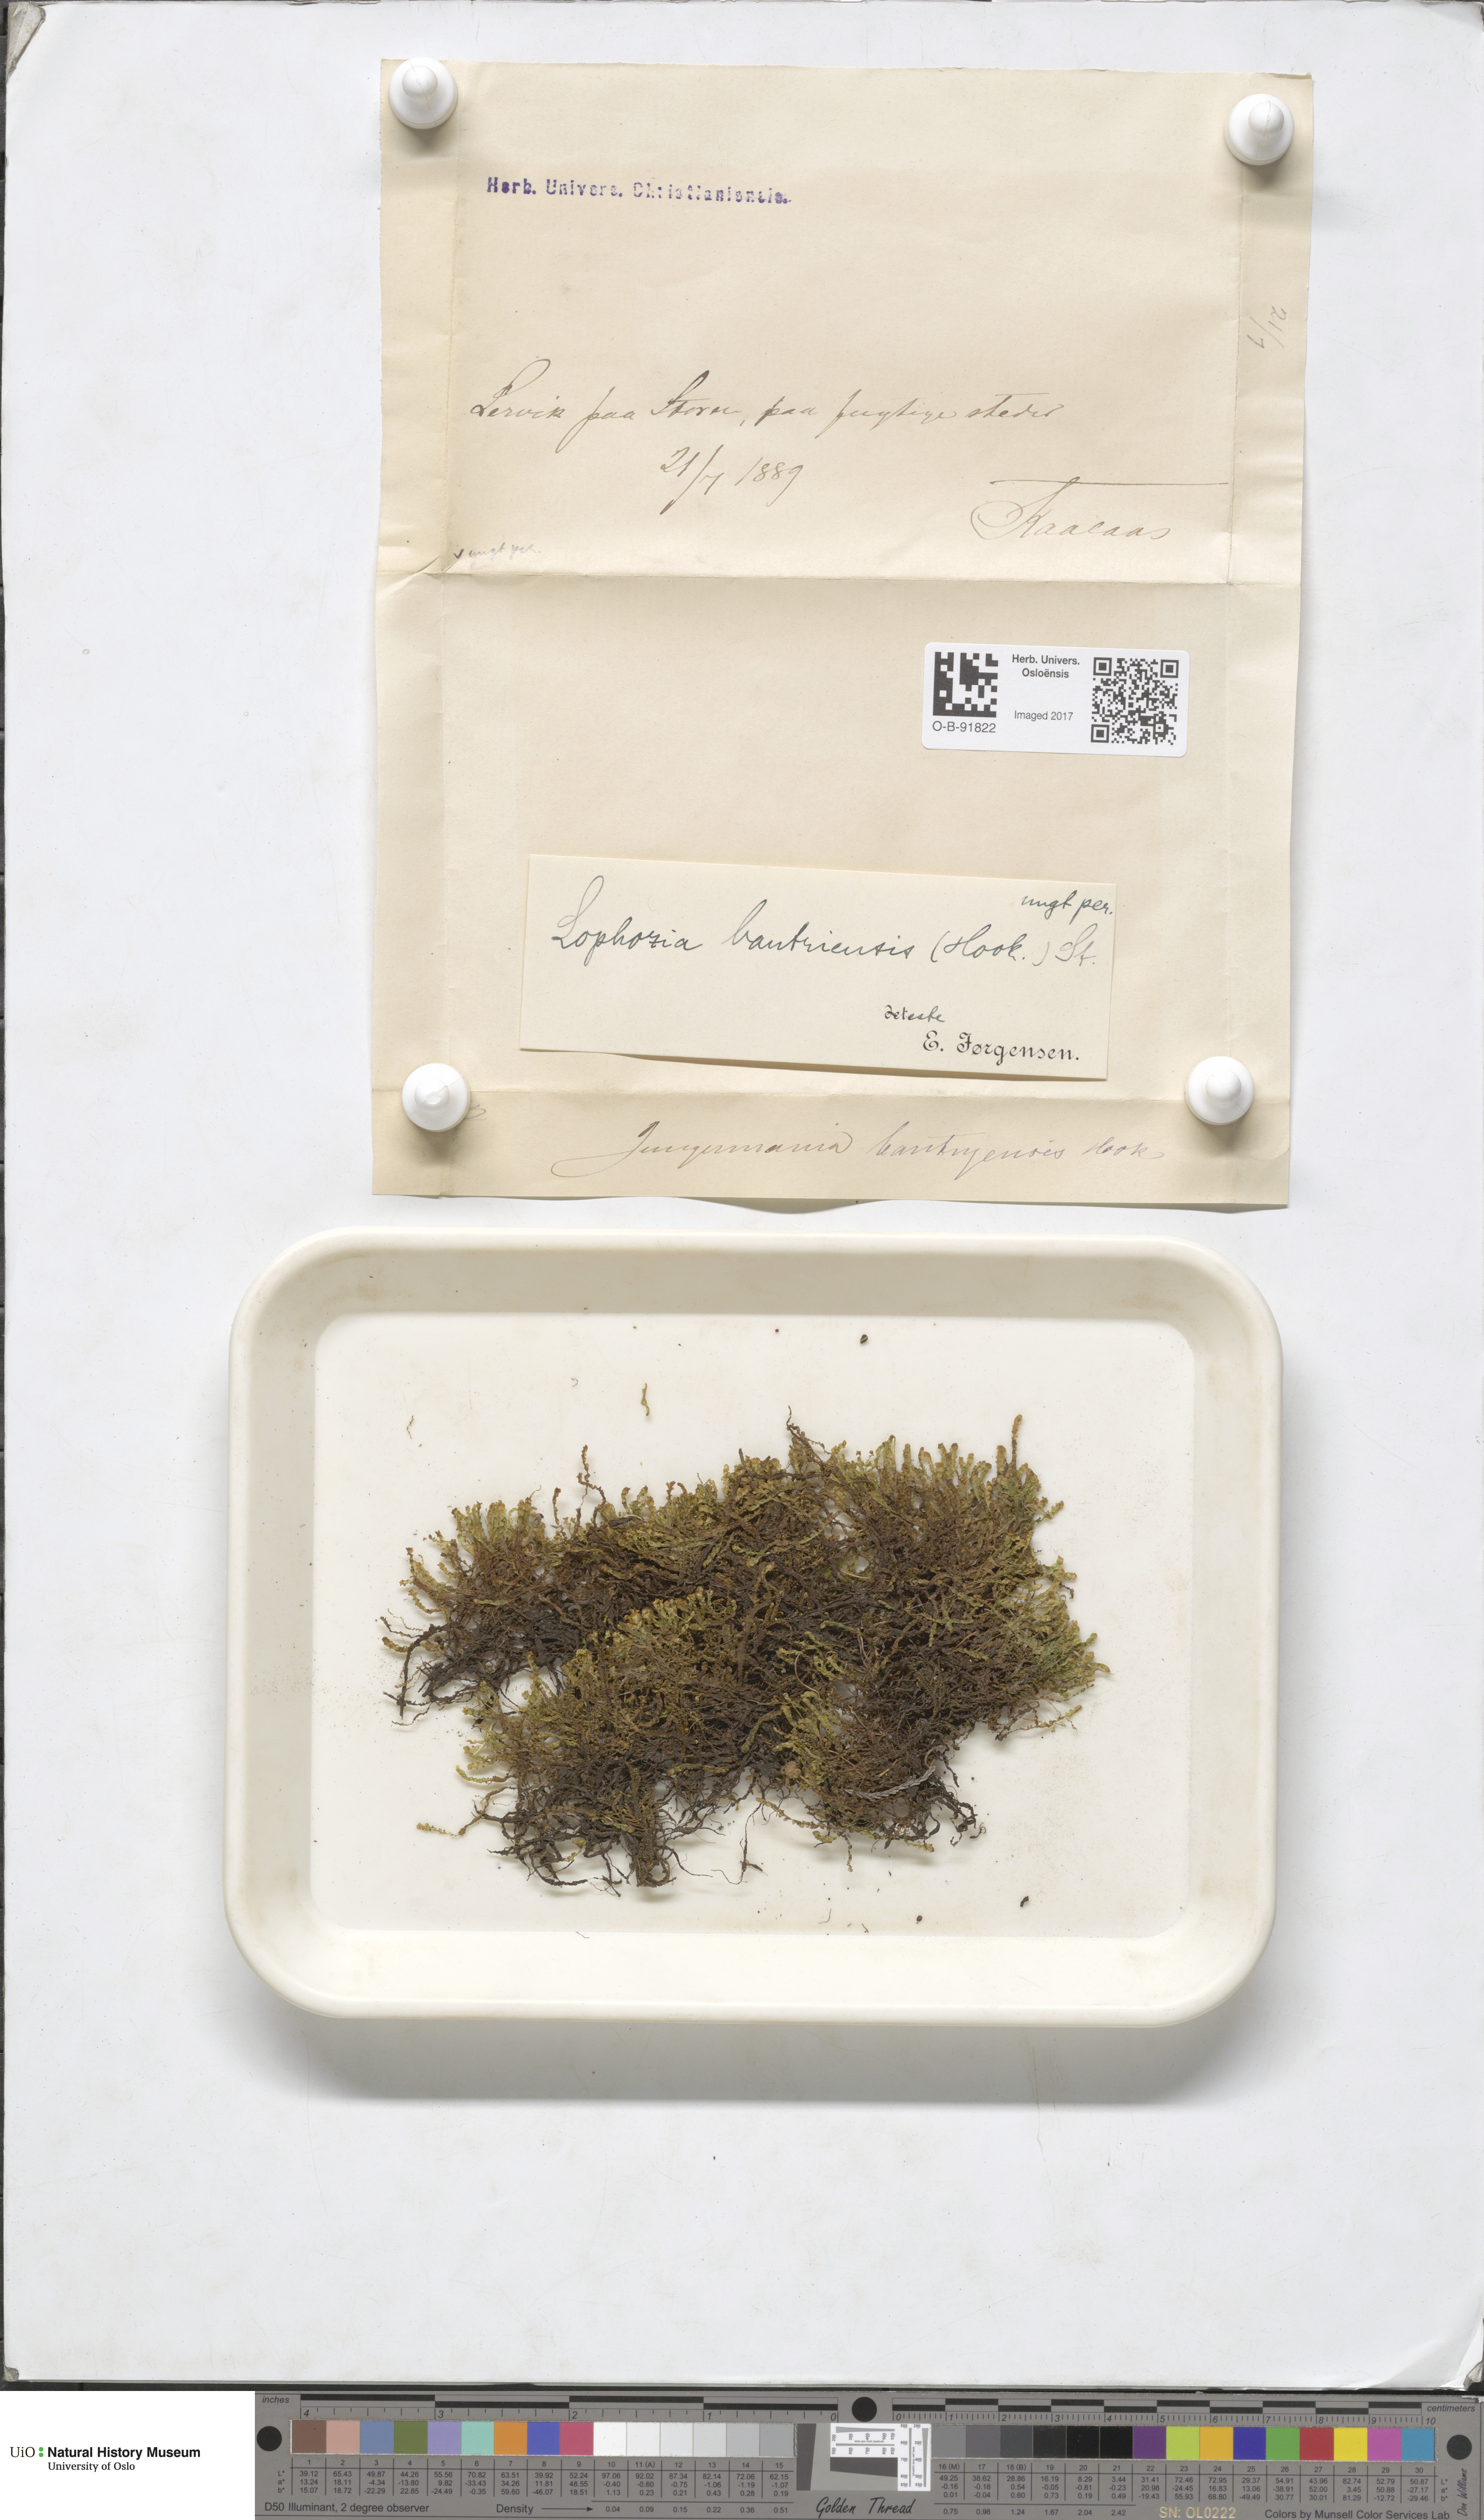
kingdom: Plantae
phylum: Marchantiophyta
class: Jungermanniopsida
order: Jungermanniales
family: Jungermanniaceae
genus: Mesoptychia
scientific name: Mesoptychia bantriensis
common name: Bantry notchwort
